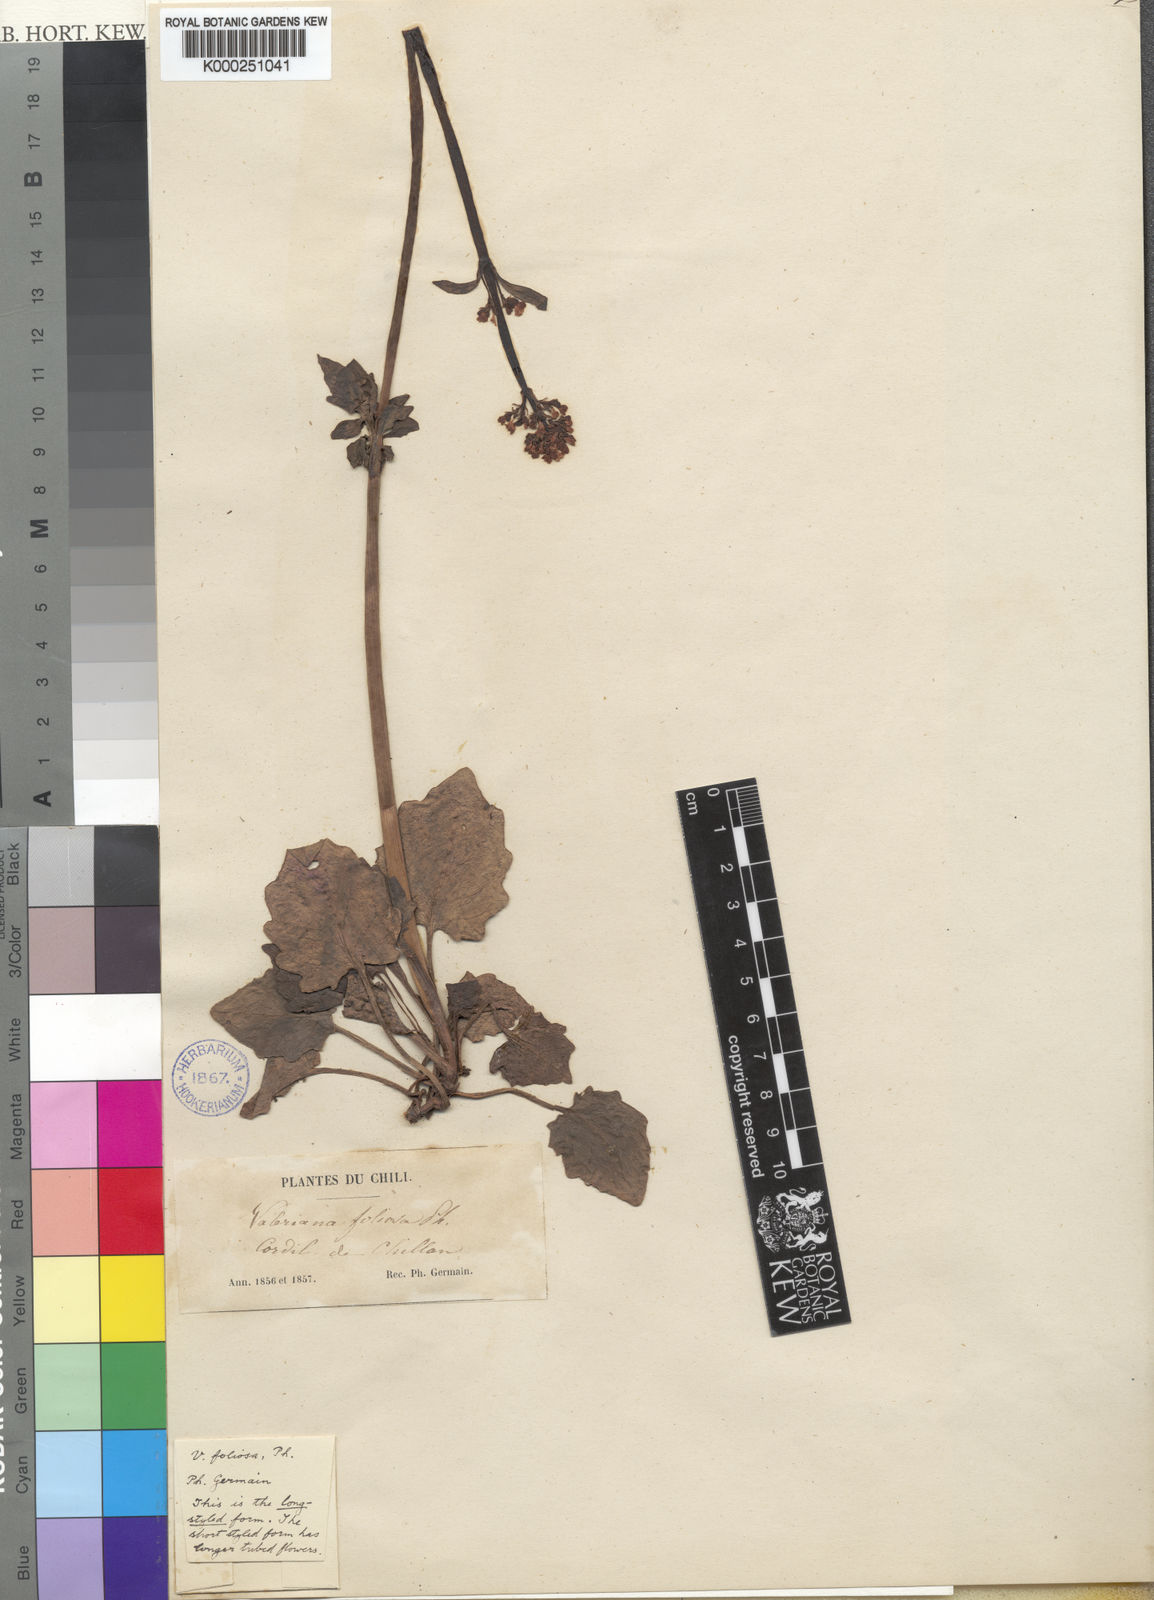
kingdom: Plantae
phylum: Tracheophyta
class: Magnoliopsida
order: Dipsacales
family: Caprifoliaceae
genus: Valeriana
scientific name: Valeriana laxiflora
